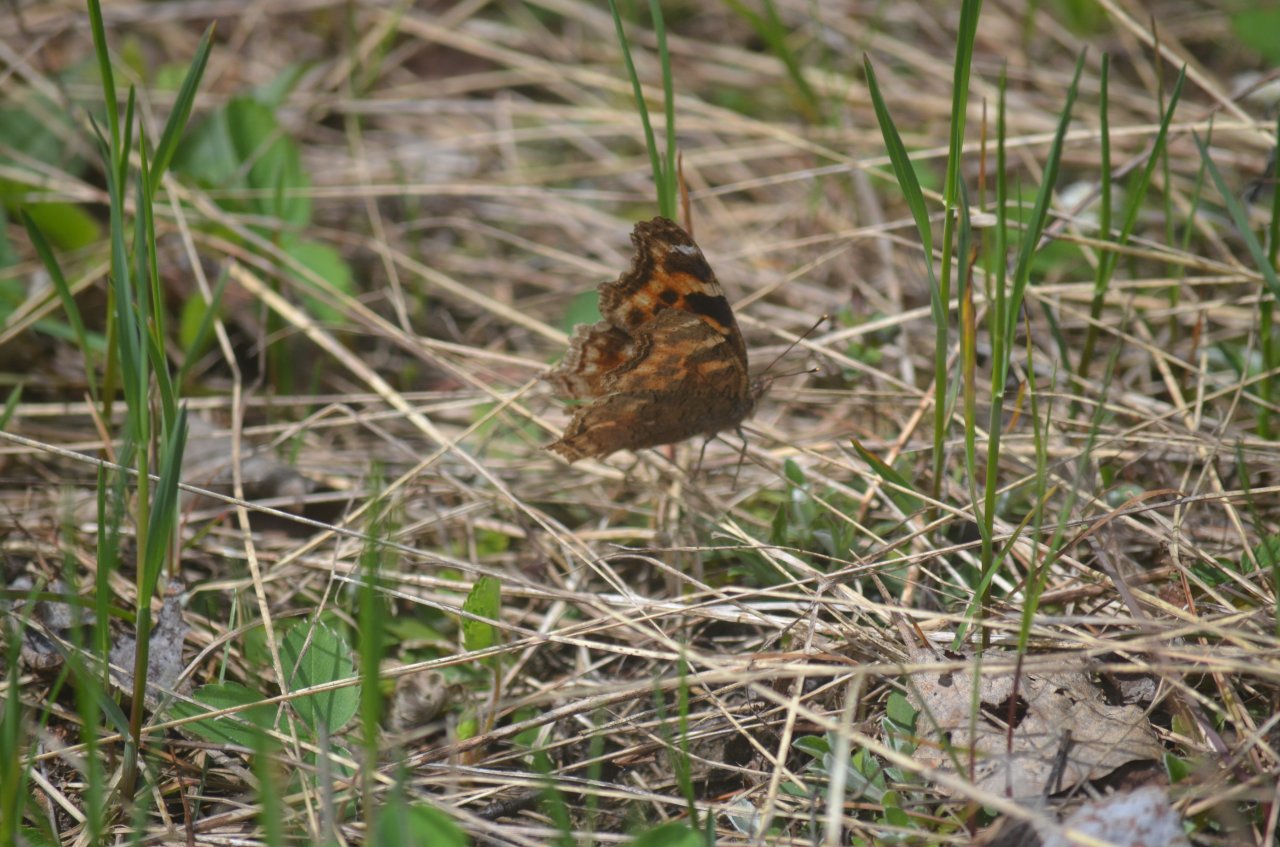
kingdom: Animalia
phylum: Arthropoda
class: Insecta
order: Lepidoptera
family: Nymphalidae
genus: Polygonia
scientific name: Polygonia vaualbum
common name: Compton Tortoiseshell
